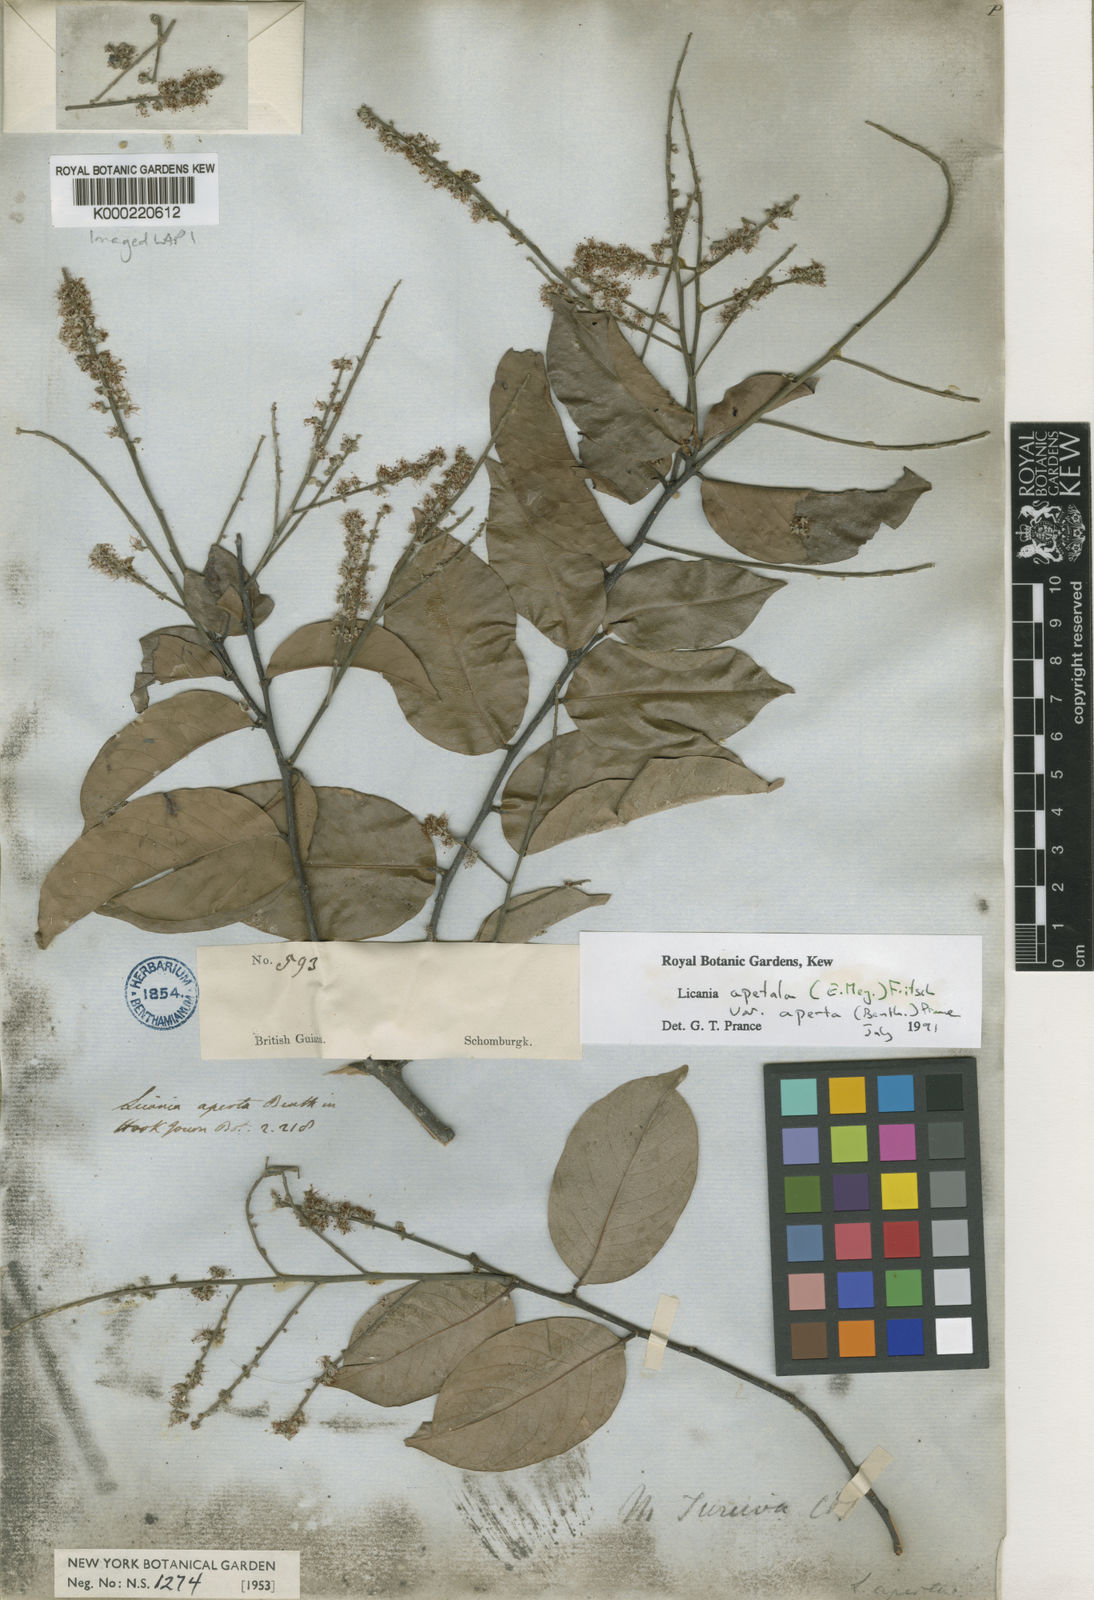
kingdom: Plantae
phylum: Tracheophyta
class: Magnoliopsida
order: Malpighiales
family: Chrysobalanaceae
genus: Leptobalanus
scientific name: Leptobalanus apetalus
